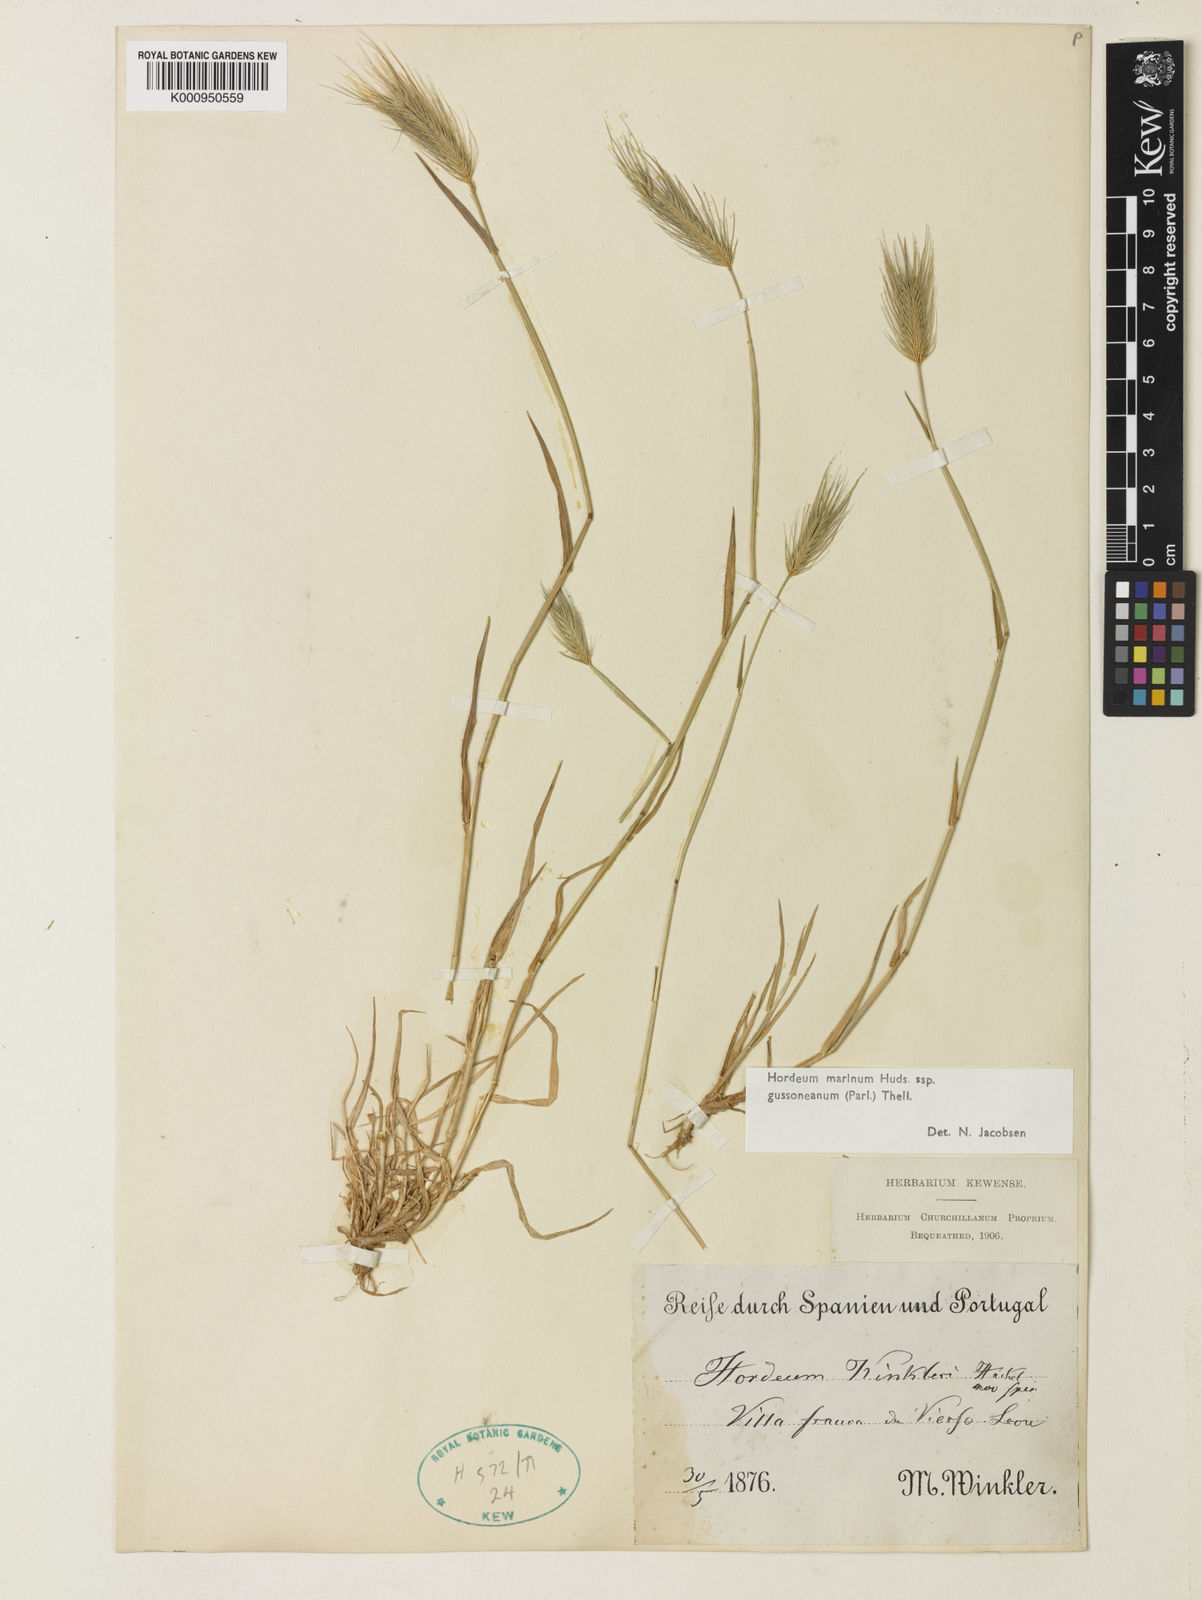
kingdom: Plantae
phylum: Tracheophyta
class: Liliopsida
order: Poales
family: Poaceae
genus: Hordeum
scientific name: Hordeum marinum
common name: Sea barley
